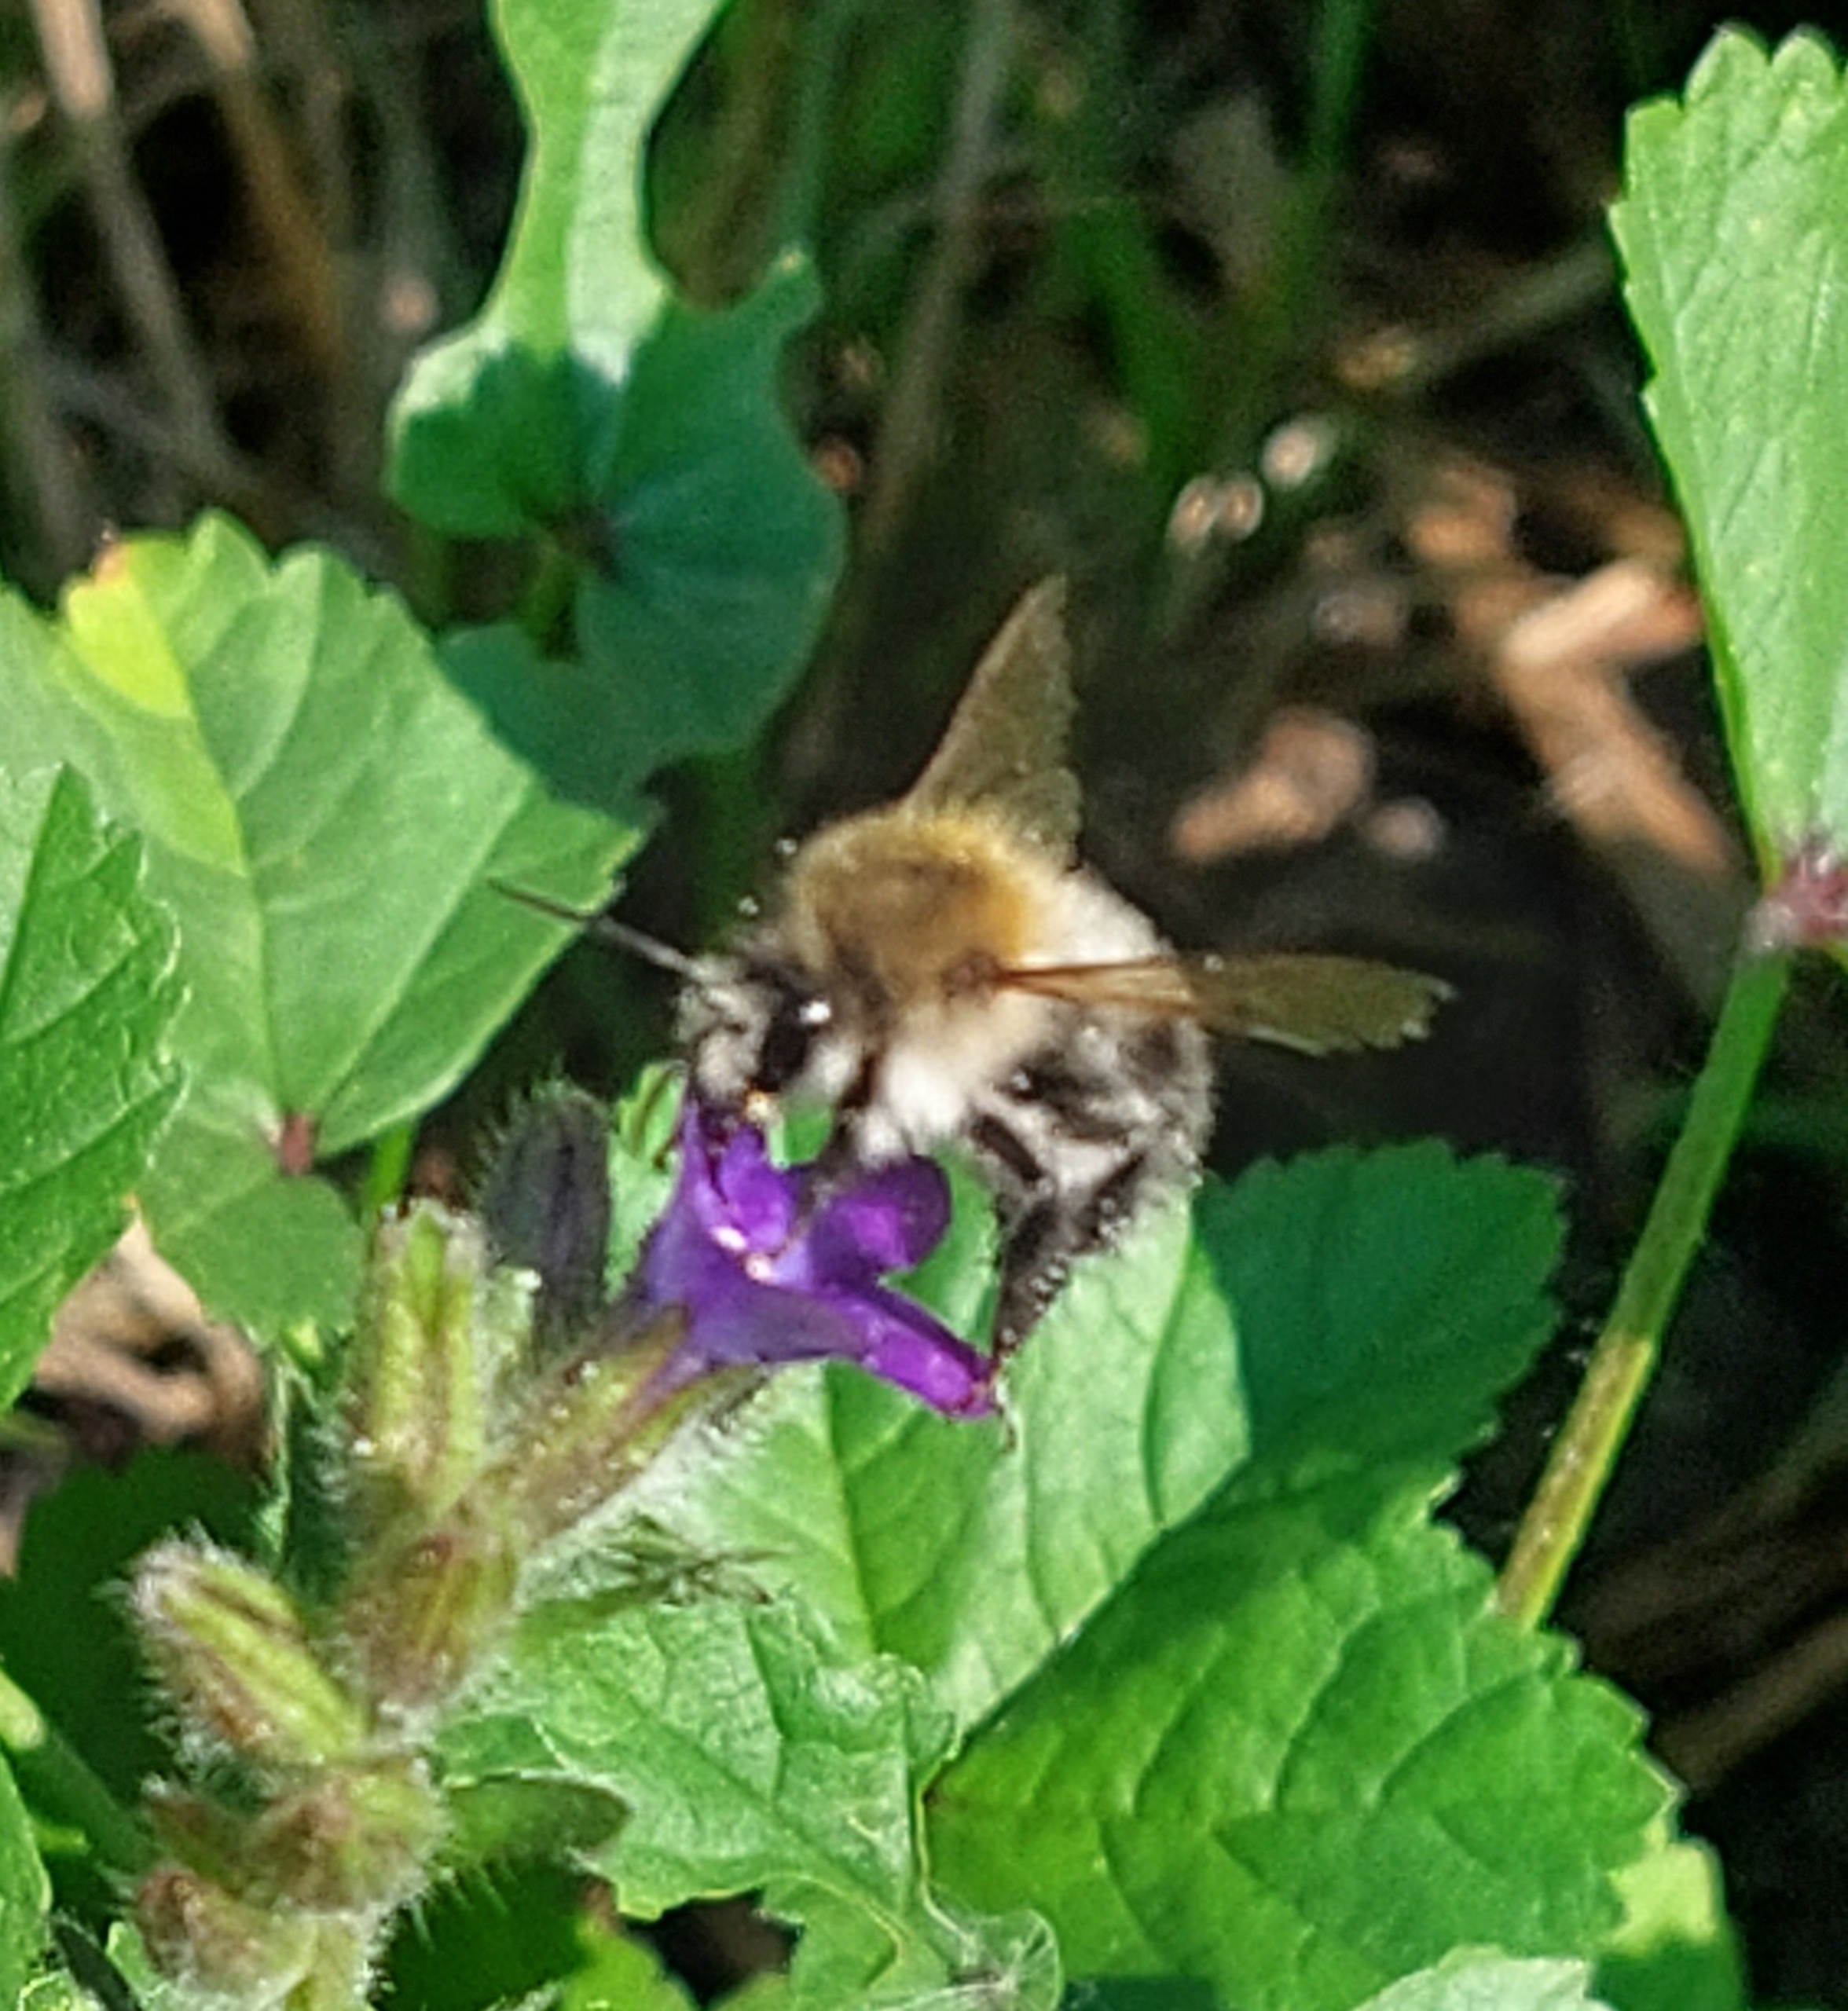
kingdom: Animalia
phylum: Arthropoda
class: Insecta
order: Hymenoptera
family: Apidae
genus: Bombus
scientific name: Bombus pascuorum
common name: Agerhumle
